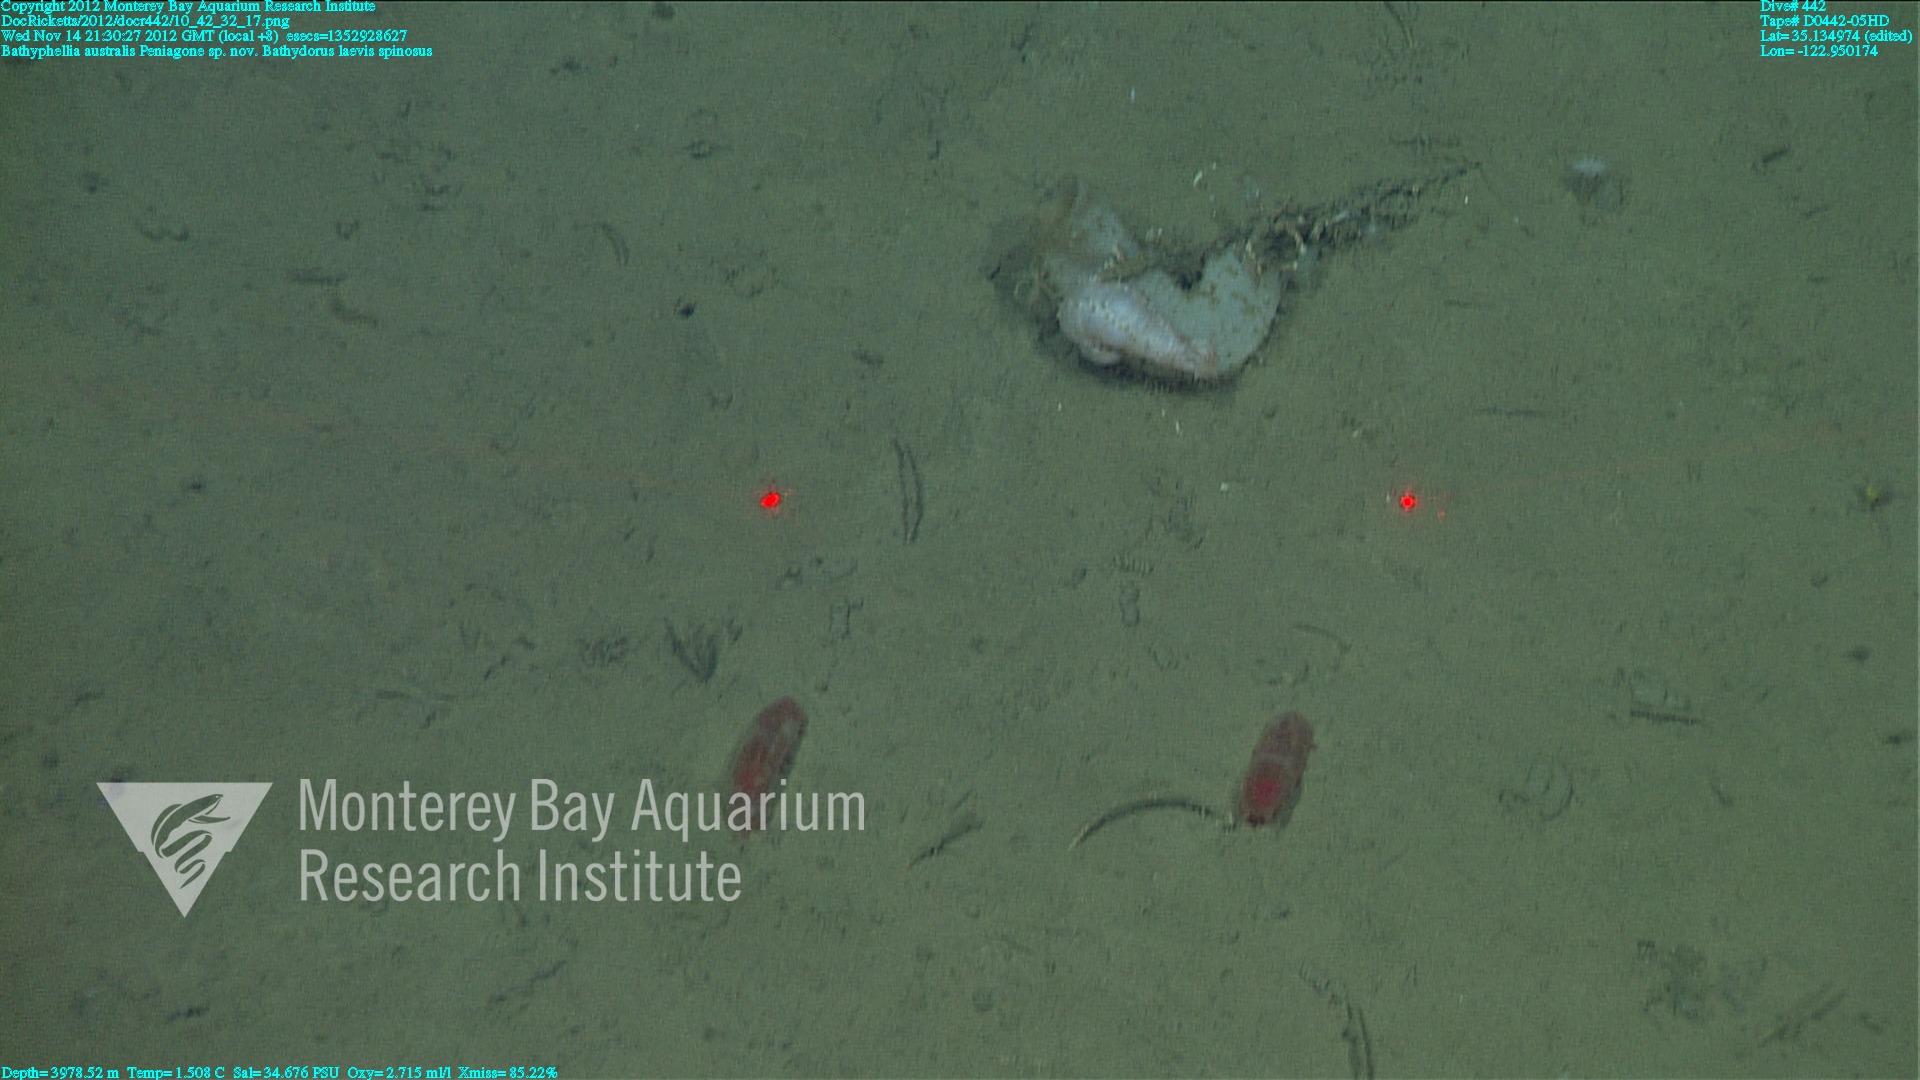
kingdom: Animalia
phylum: Porifera
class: Hexactinellida
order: Lyssacinosida
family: Rossellidae
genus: Bathydorus
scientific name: Bathydorus spinosus
